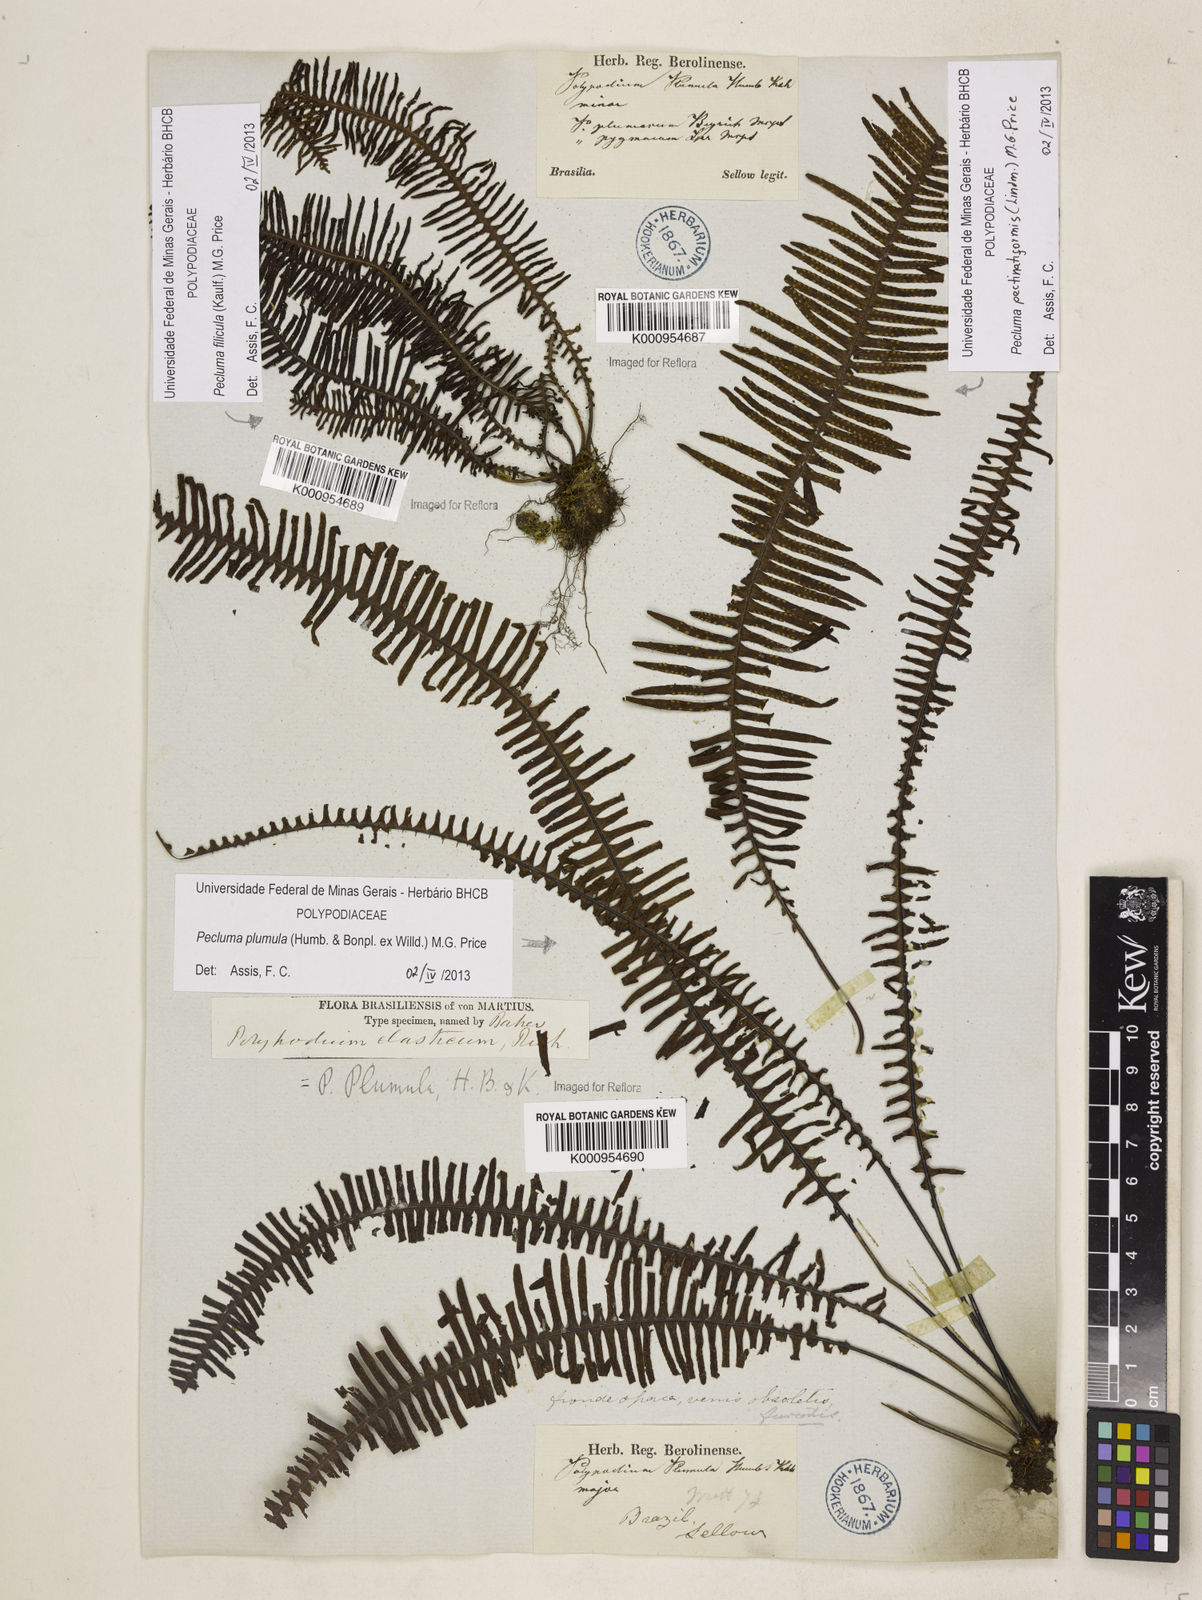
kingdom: Plantae
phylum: Tracheophyta
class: Polypodiopsida
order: Polypodiales
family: Polypodiaceae
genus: Pecluma
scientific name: Pecluma pectinatiformis
